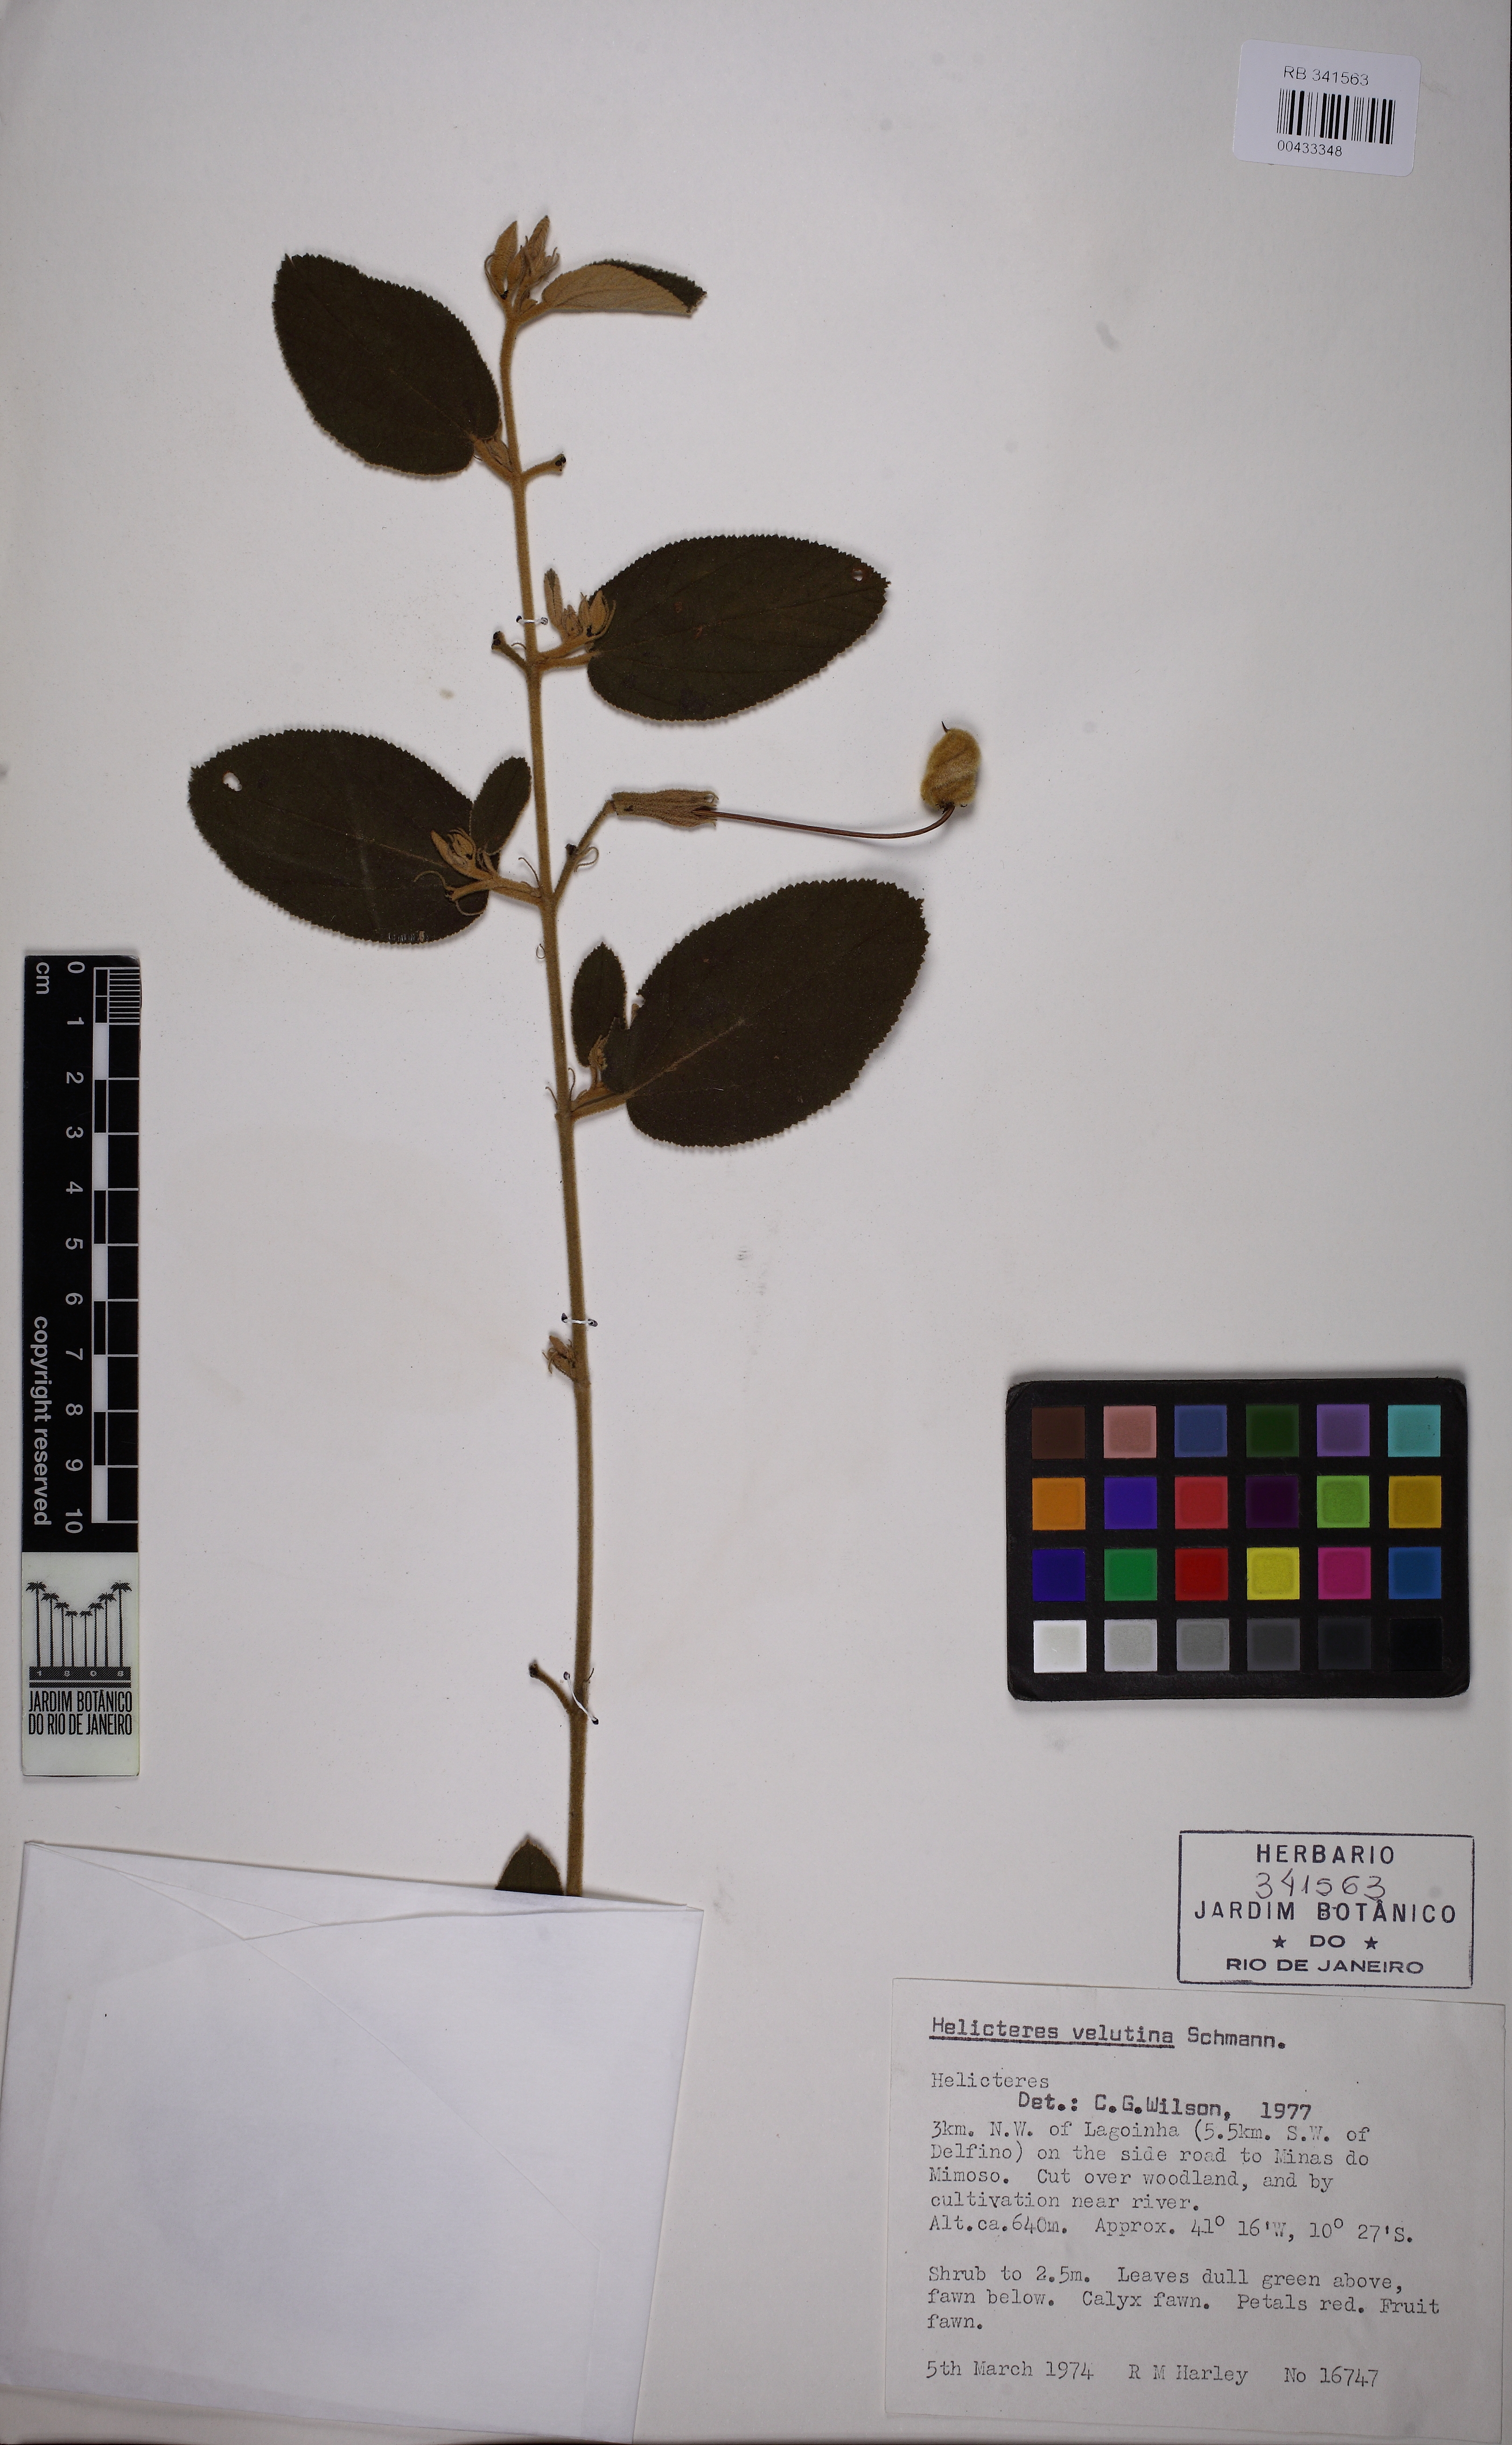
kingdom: Plantae
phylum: Tracheophyta
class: Magnoliopsida
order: Malvales
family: Malvaceae
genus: Helicteres
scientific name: Helicteres velutina
